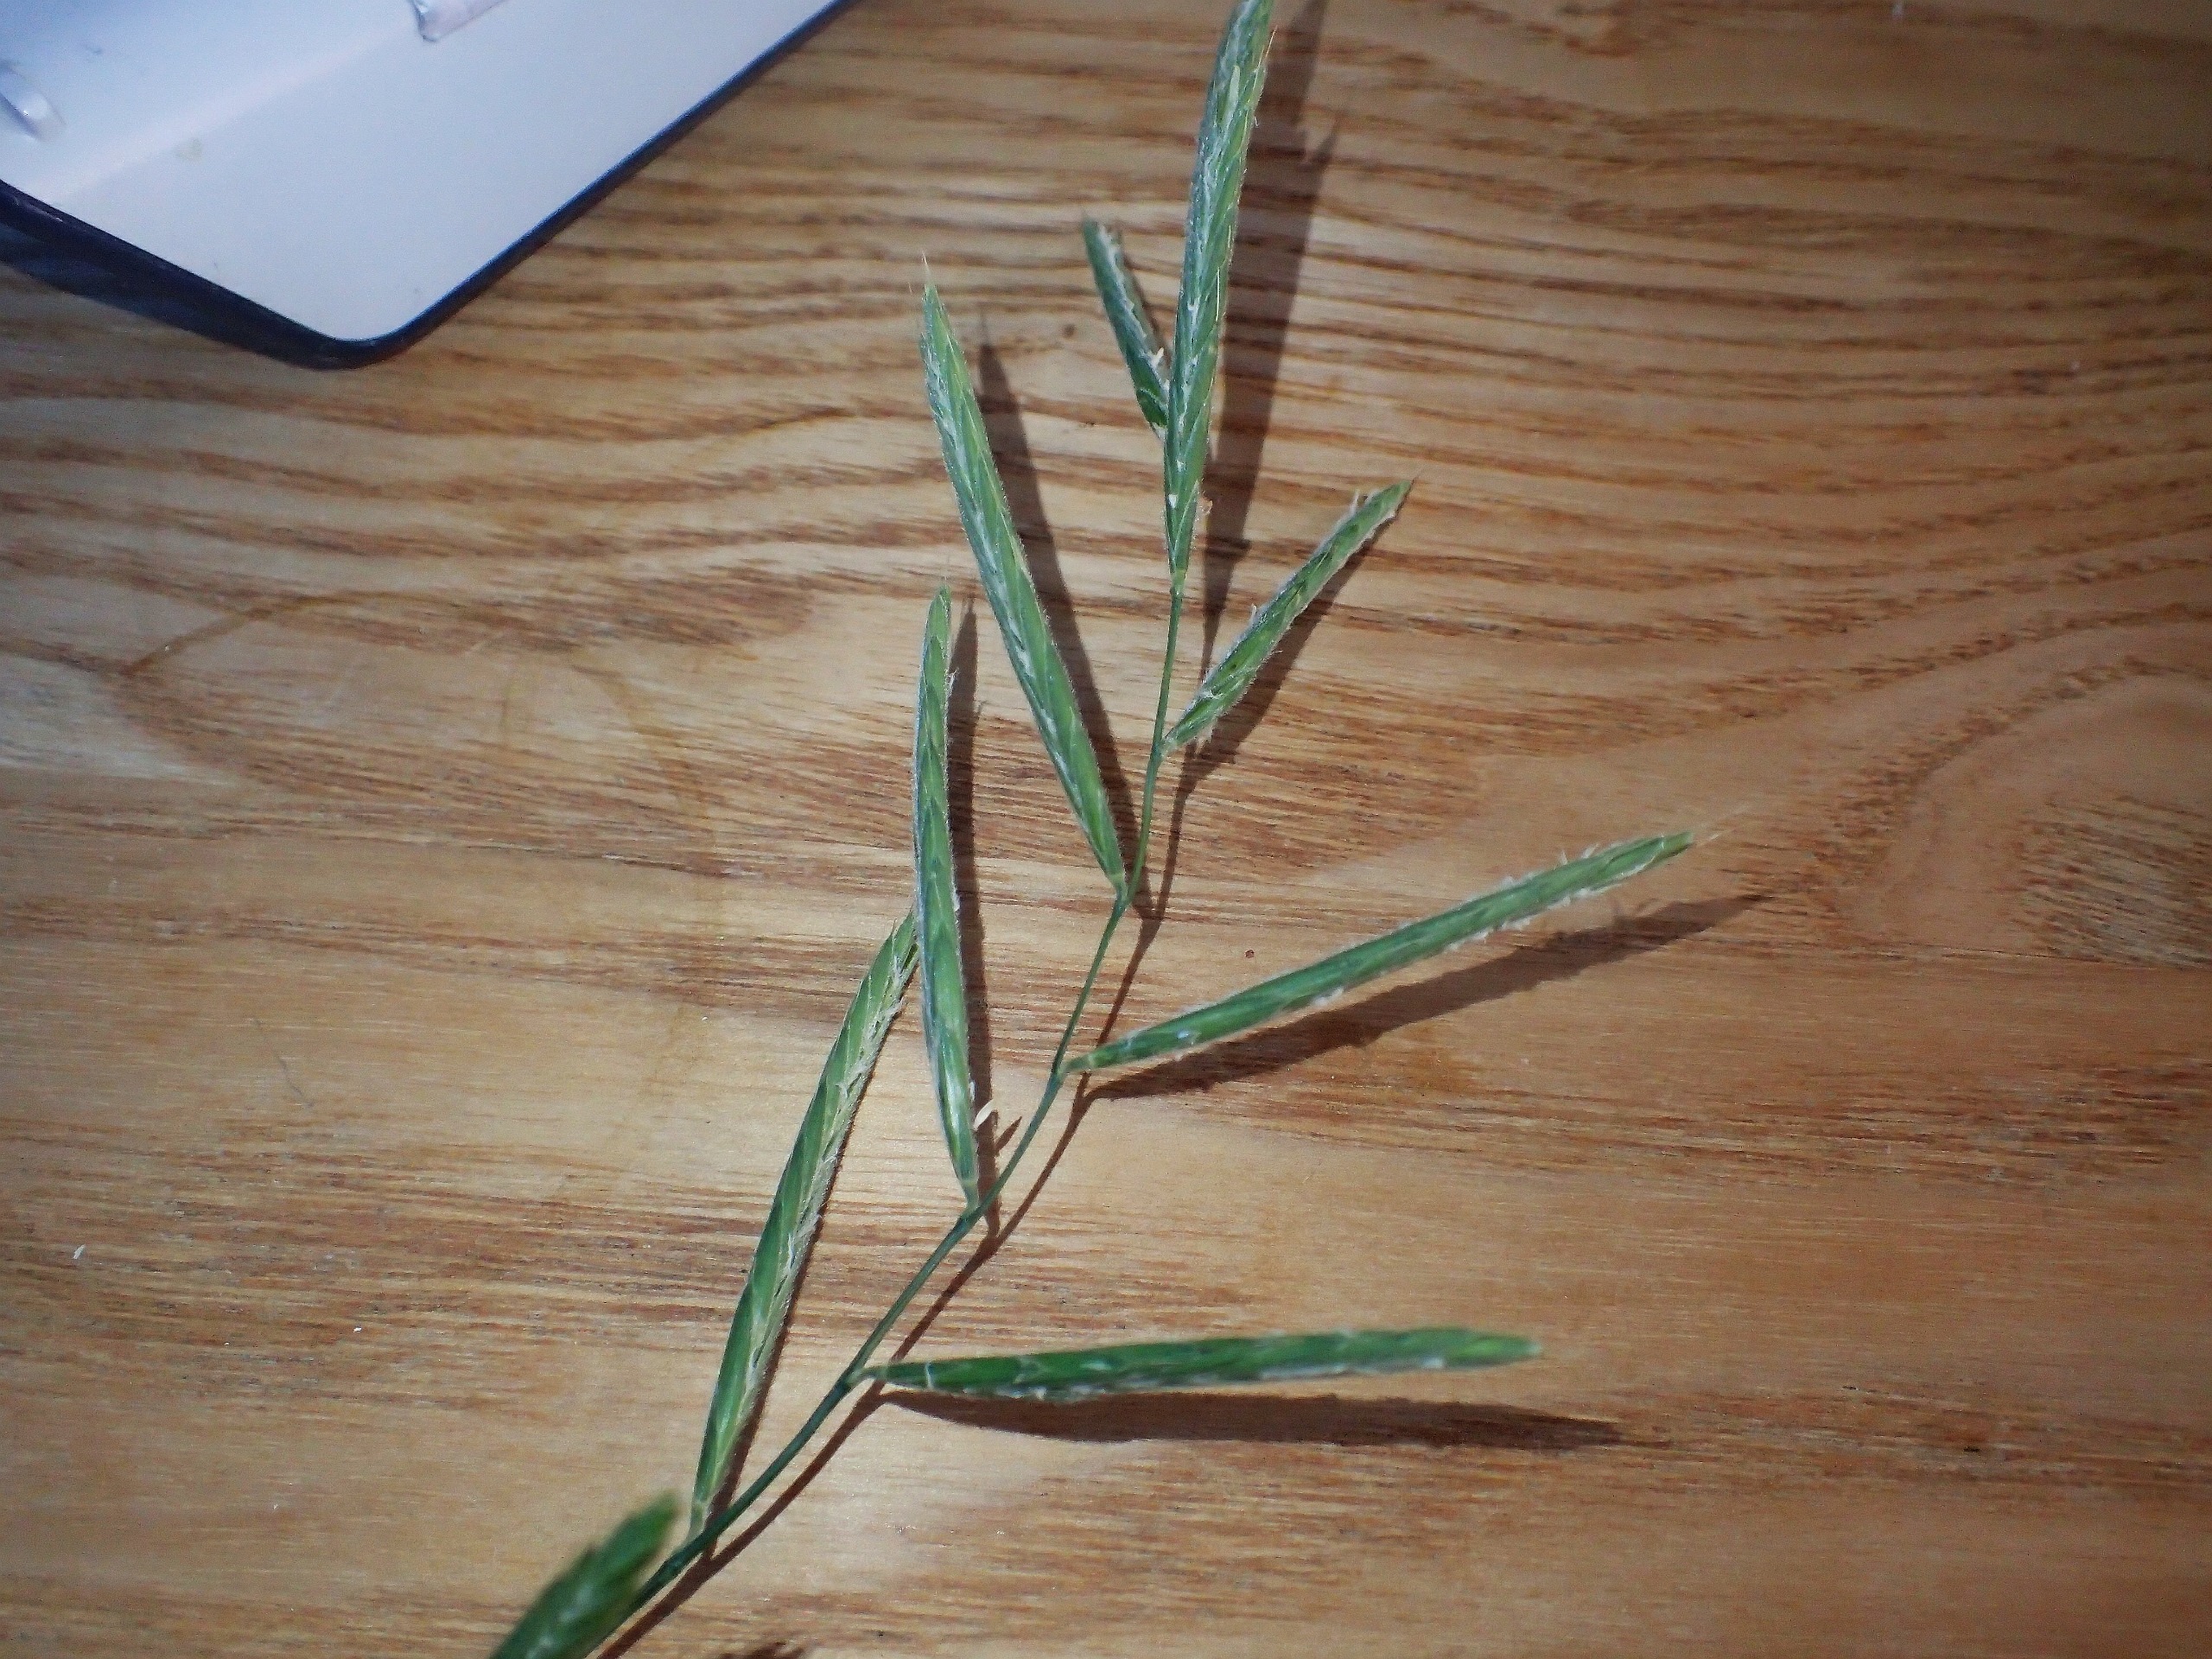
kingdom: Plantae
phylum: Tracheophyta
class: Liliopsida
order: Poales
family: Poaceae
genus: Brachypodium
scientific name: Brachypodium pinnatum
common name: Bakke-stilkaks
